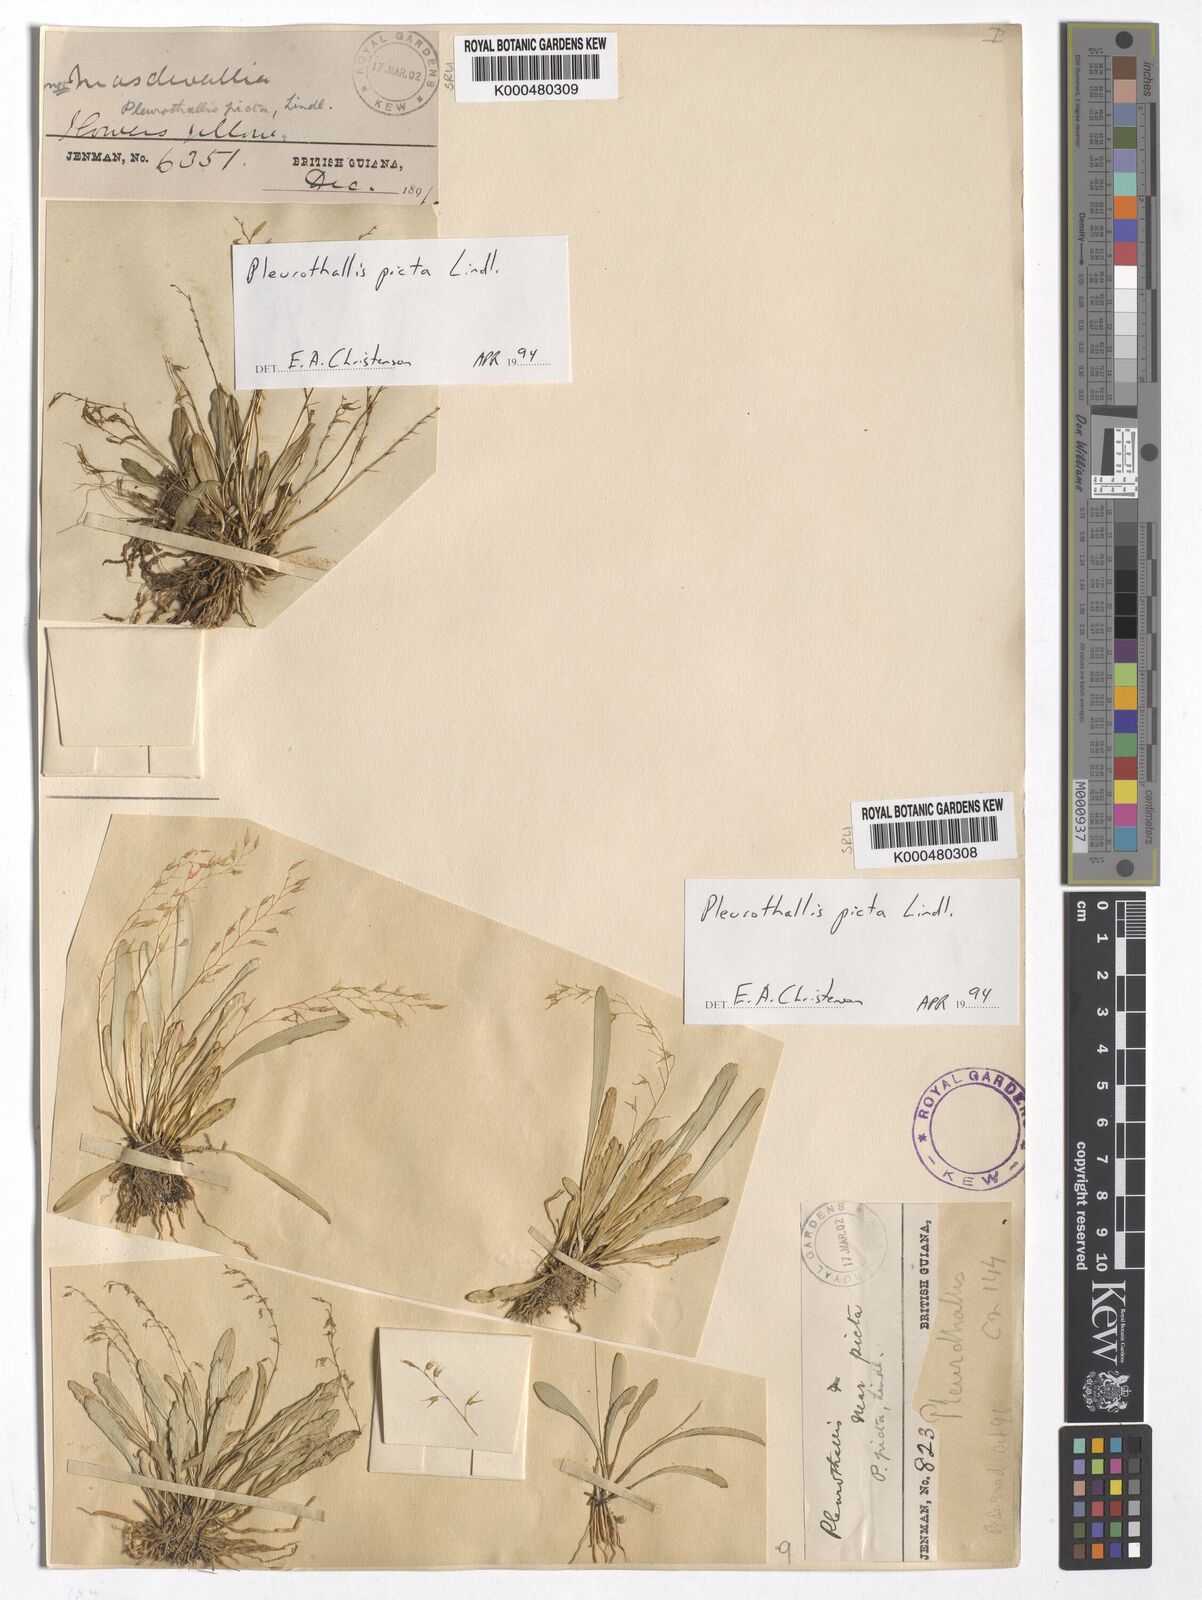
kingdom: Plantae
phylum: Tracheophyta
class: Liliopsida
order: Asparagales
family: Orchidaceae
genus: Specklinia
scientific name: Specklinia picta
